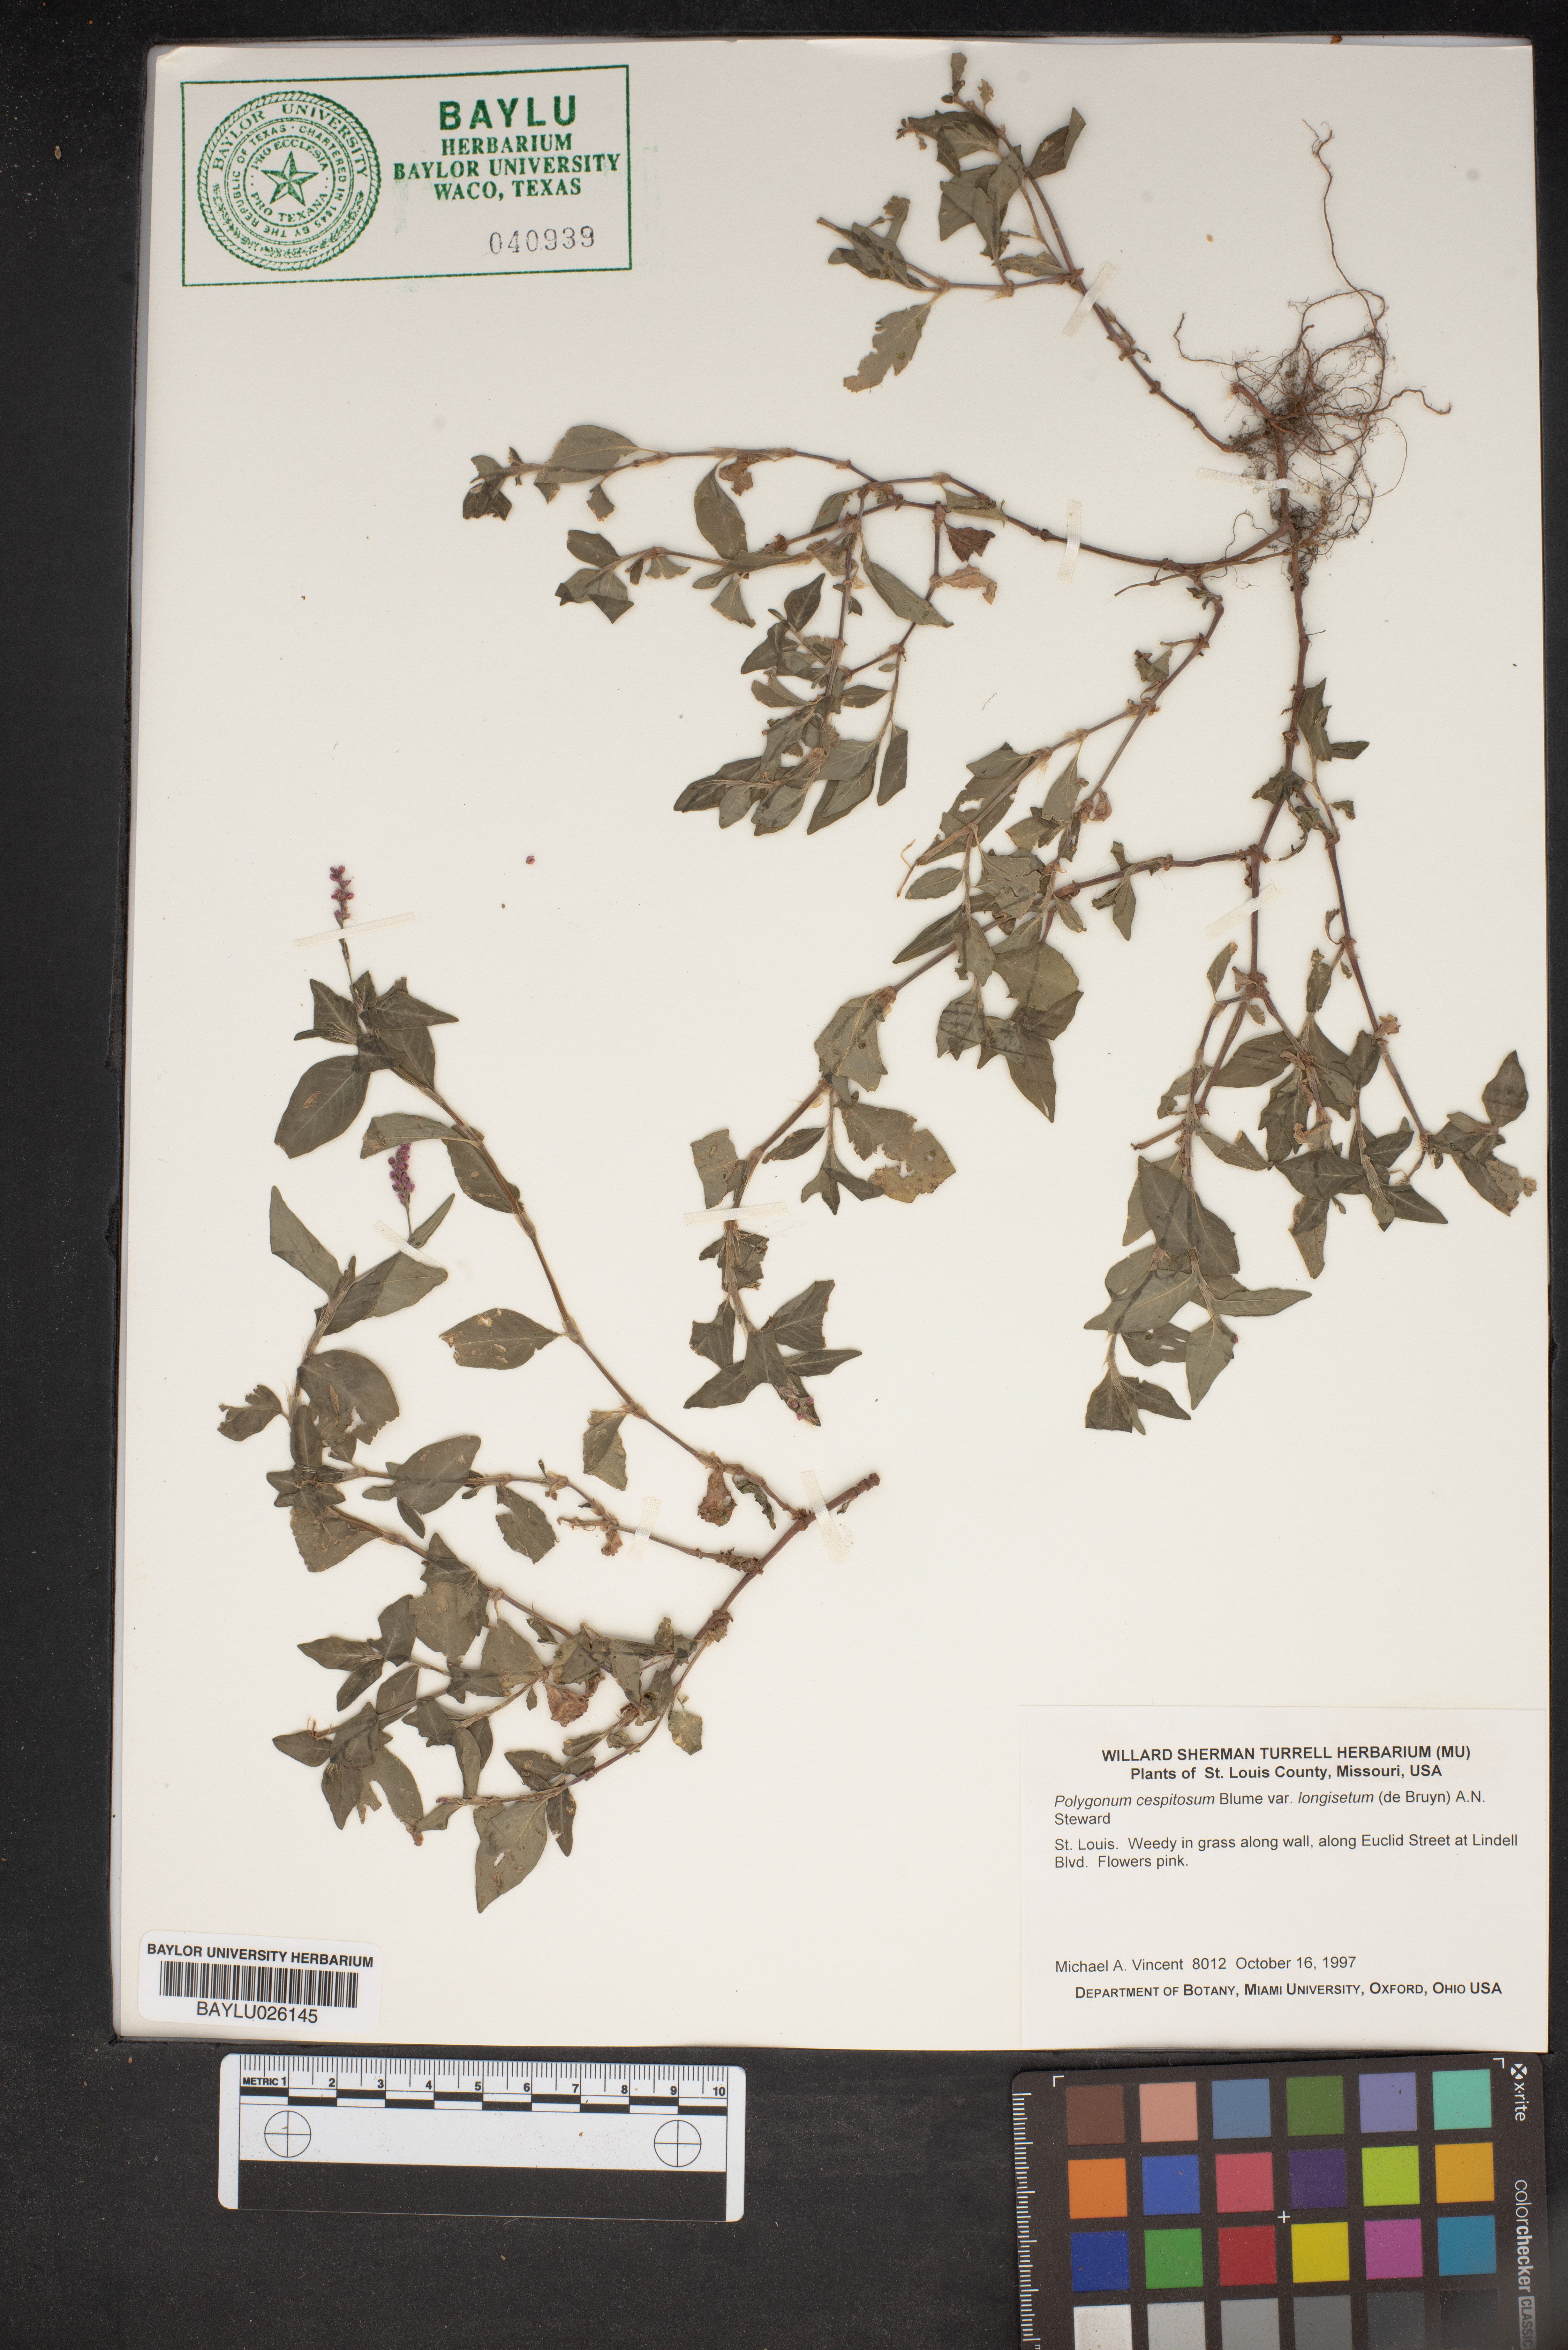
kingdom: Plantae
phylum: Tracheophyta
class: Magnoliopsida
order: Caryophyllales
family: Polygonaceae
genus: Persicaria
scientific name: Persicaria posumbu
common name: Oriental lady's thumb
